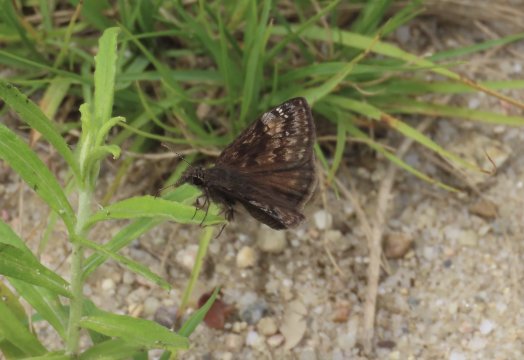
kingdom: Animalia
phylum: Arthropoda
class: Insecta
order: Lepidoptera
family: Hesperiidae
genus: Gesta
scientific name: Gesta
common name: Wild Indigo Duskywing
